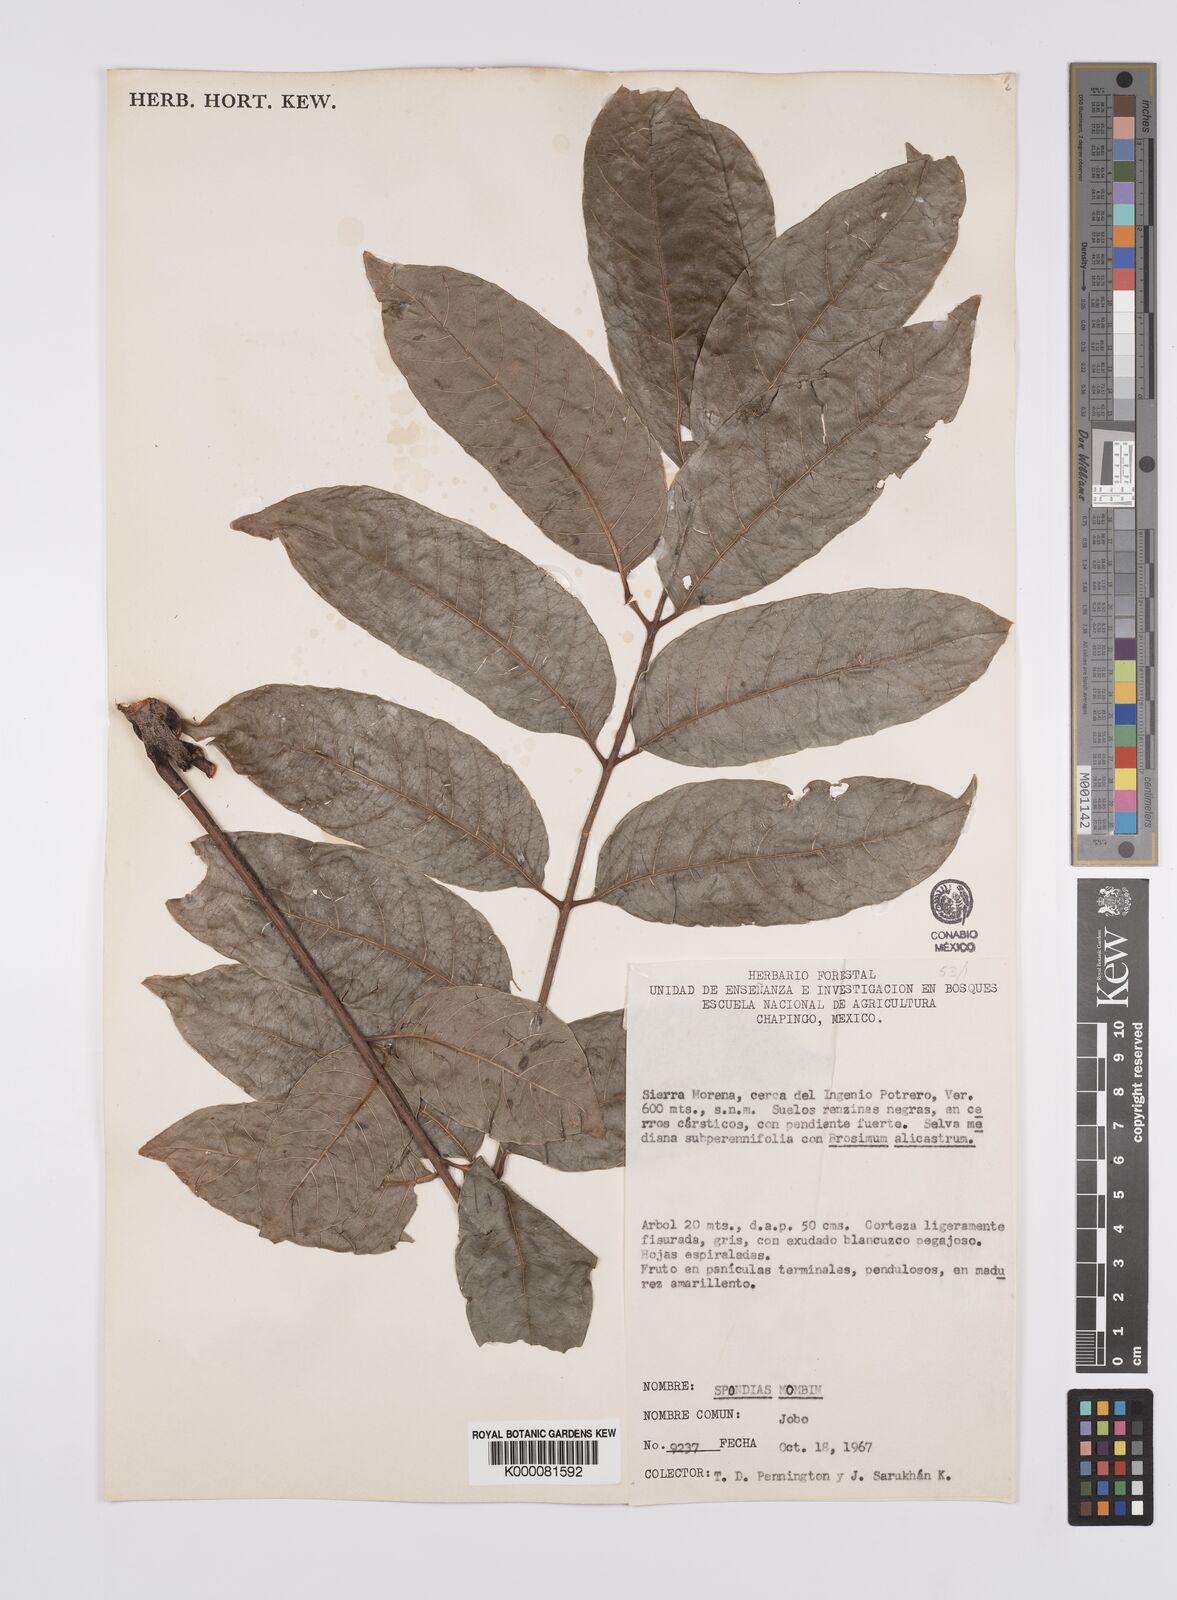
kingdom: Plantae
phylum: Tracheophyta
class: Magnoliopsida
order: Sapindales
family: Anacardiaceae
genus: Spondias
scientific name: Spondias mombin
